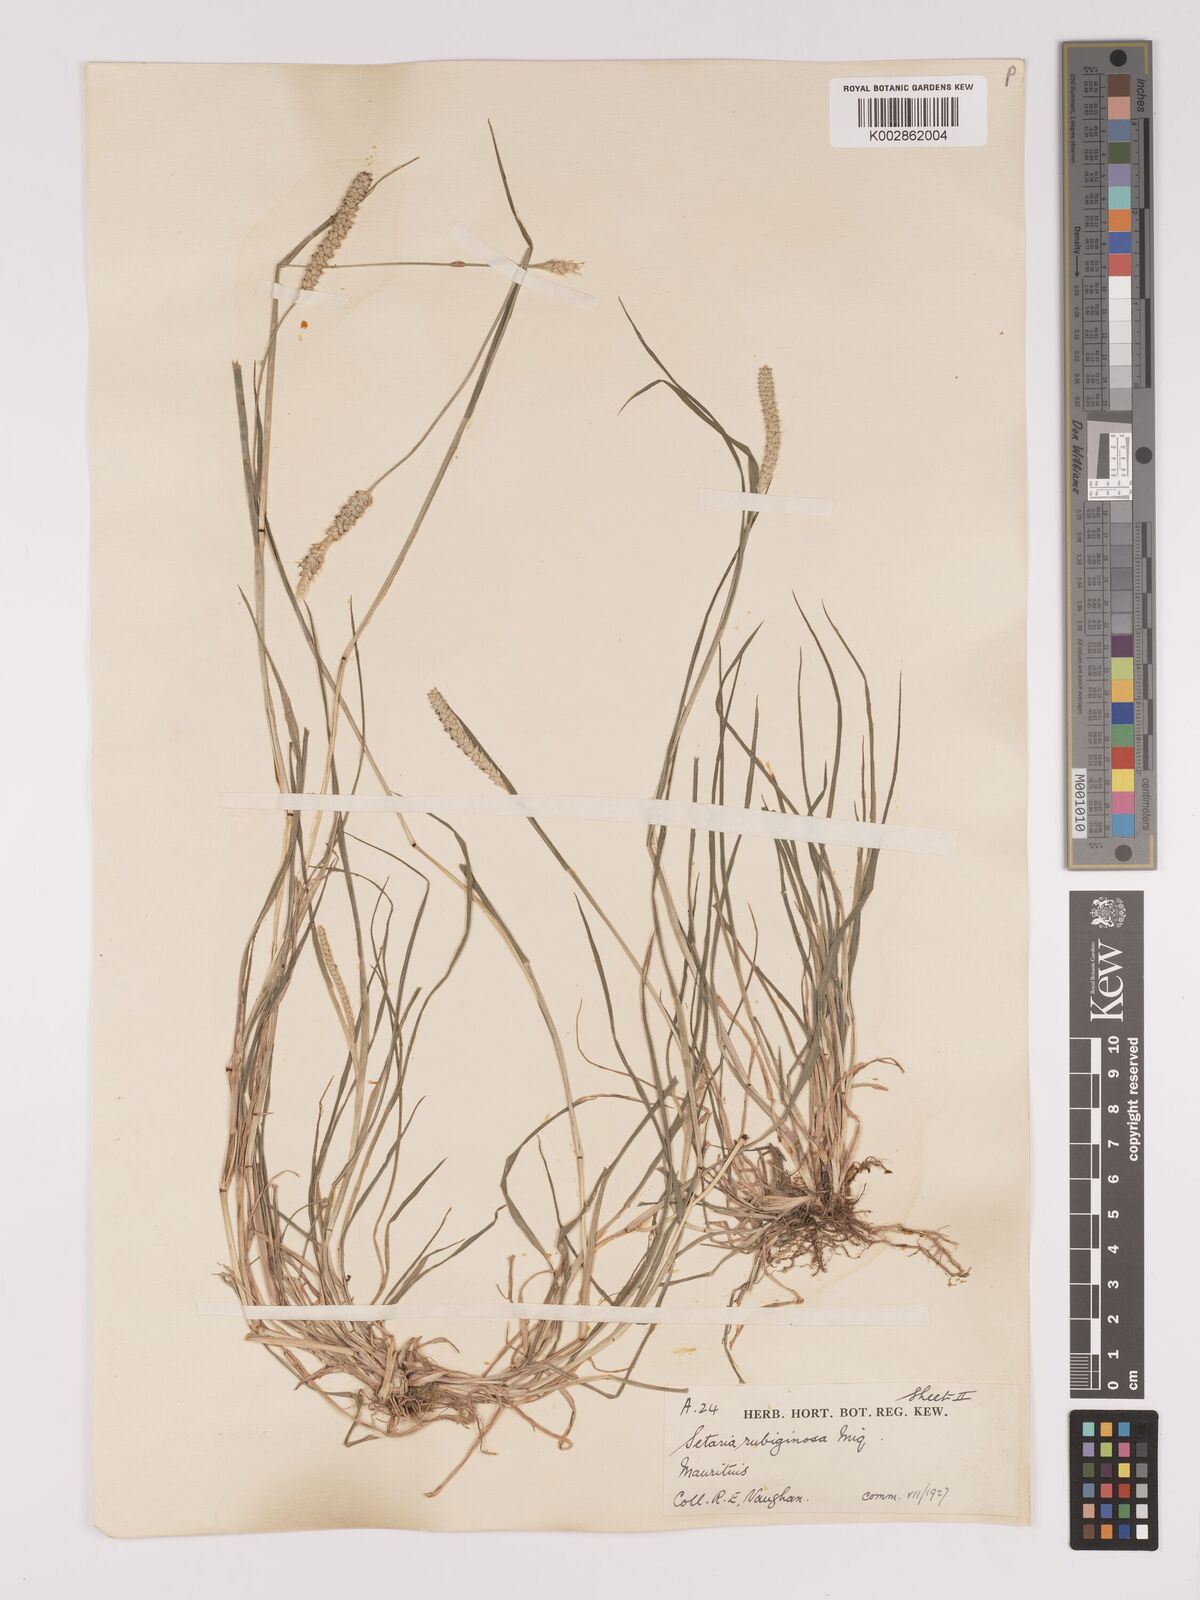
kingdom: Plantae
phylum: Tracheophyta
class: Liliopsida
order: Poales
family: Poaceae
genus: Setaria
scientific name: Setaria pumila
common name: Yellow bristle-grass
